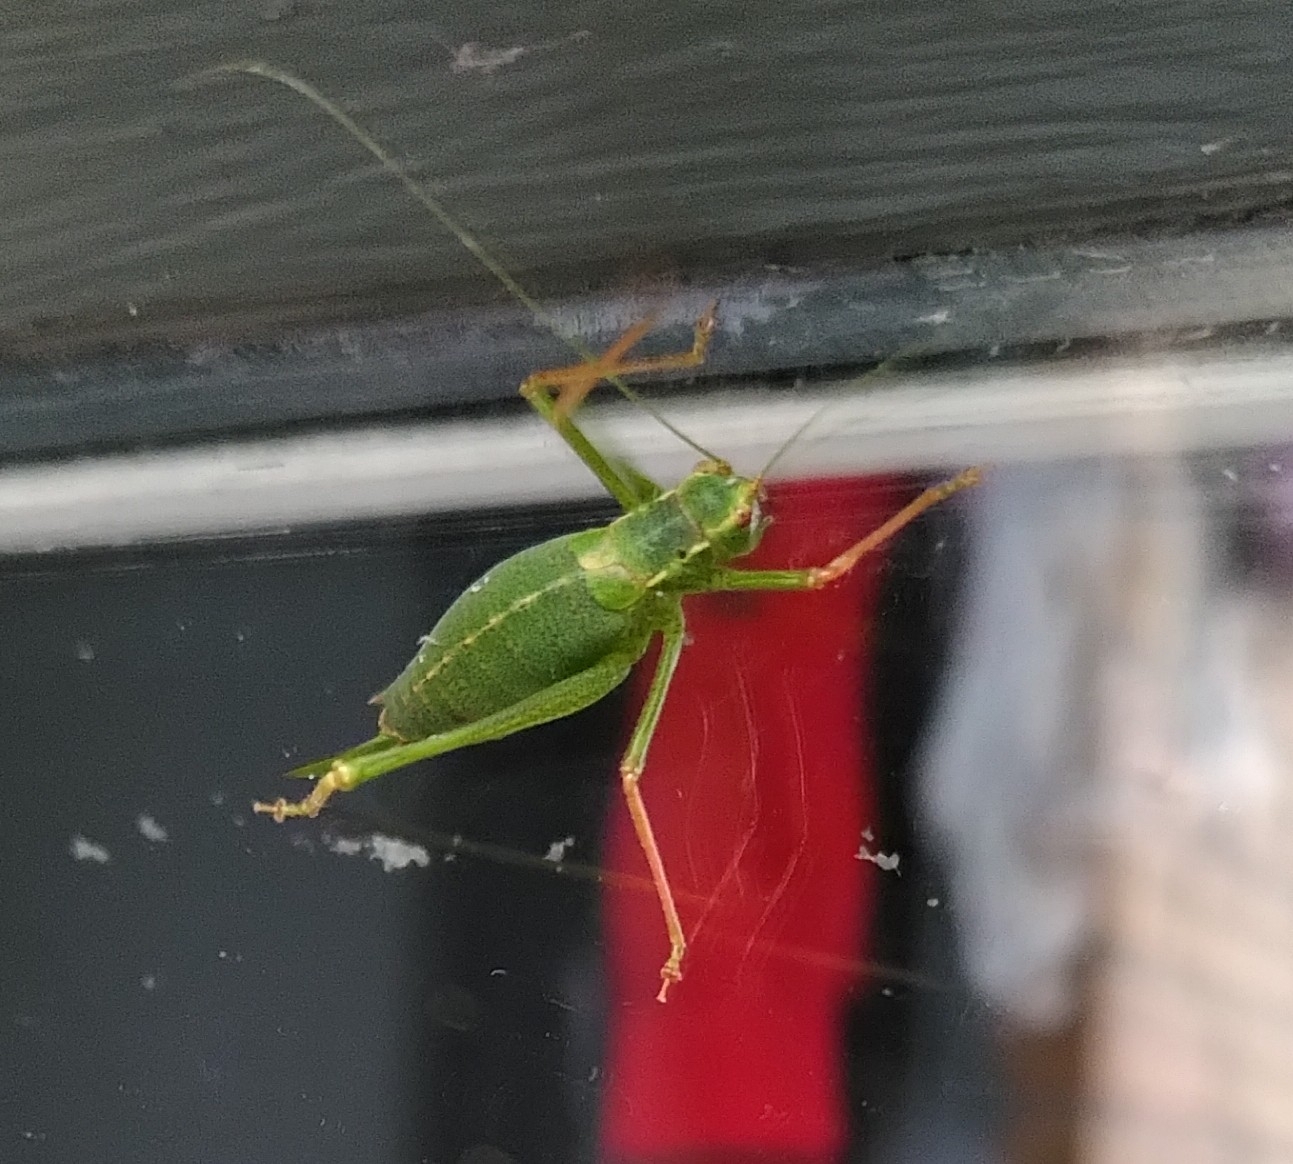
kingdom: Animalia
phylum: Arthropoda
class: Insecta
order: Orthoptera
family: Tettigoniidae
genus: Leptophyes
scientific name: Leptophyes punctatissima
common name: Krumknivgræshoppe
